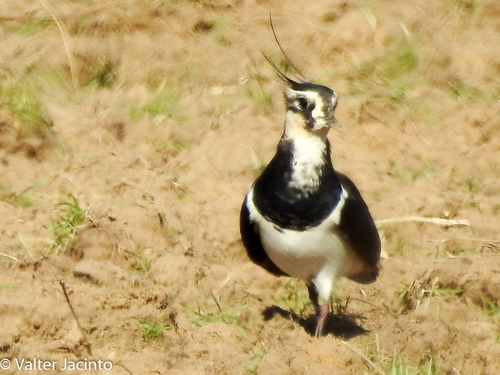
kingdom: Animalia
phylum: Chordata
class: Aves
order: Charadriiformes
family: Charadriidae
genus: Vanellus
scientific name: Vanellus vanellus
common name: Northern lapwing
